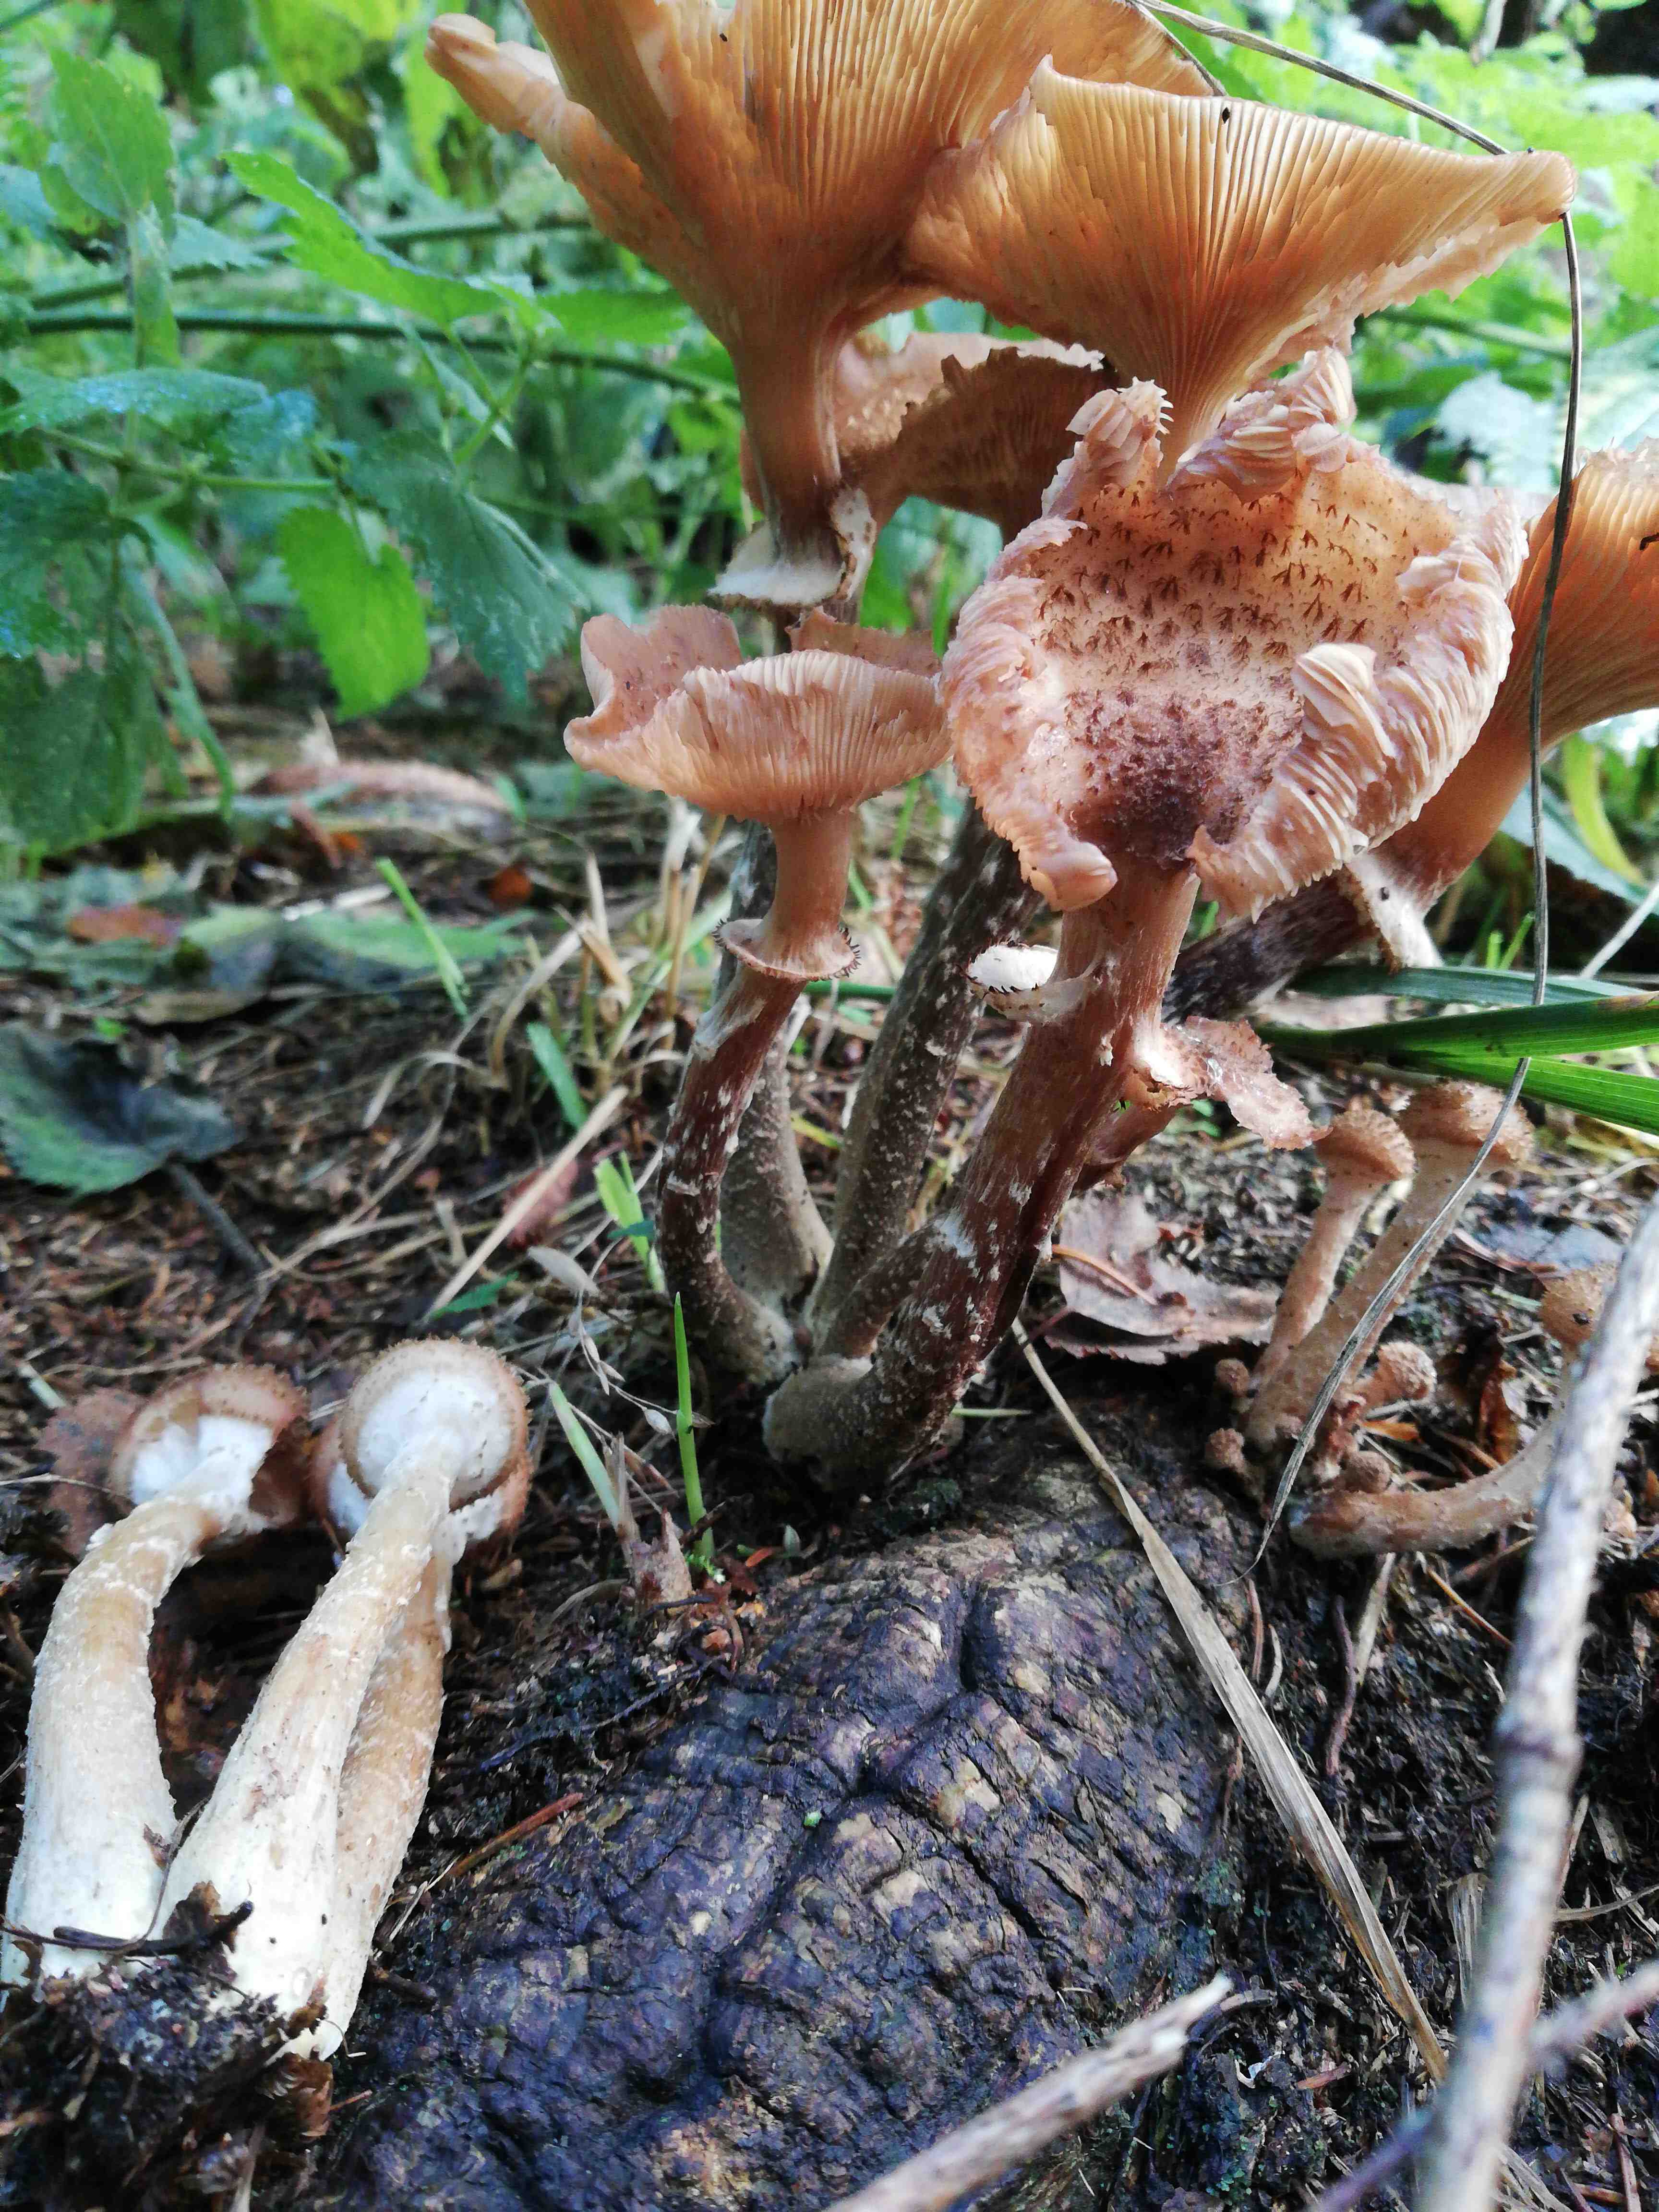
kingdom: Fungi
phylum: Basidiomycota
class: Agaricomycetes
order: Agaricales
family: Physalacriaceae
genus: Armillaria
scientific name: Armillaria ostoyae
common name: mørk honningsvamp
